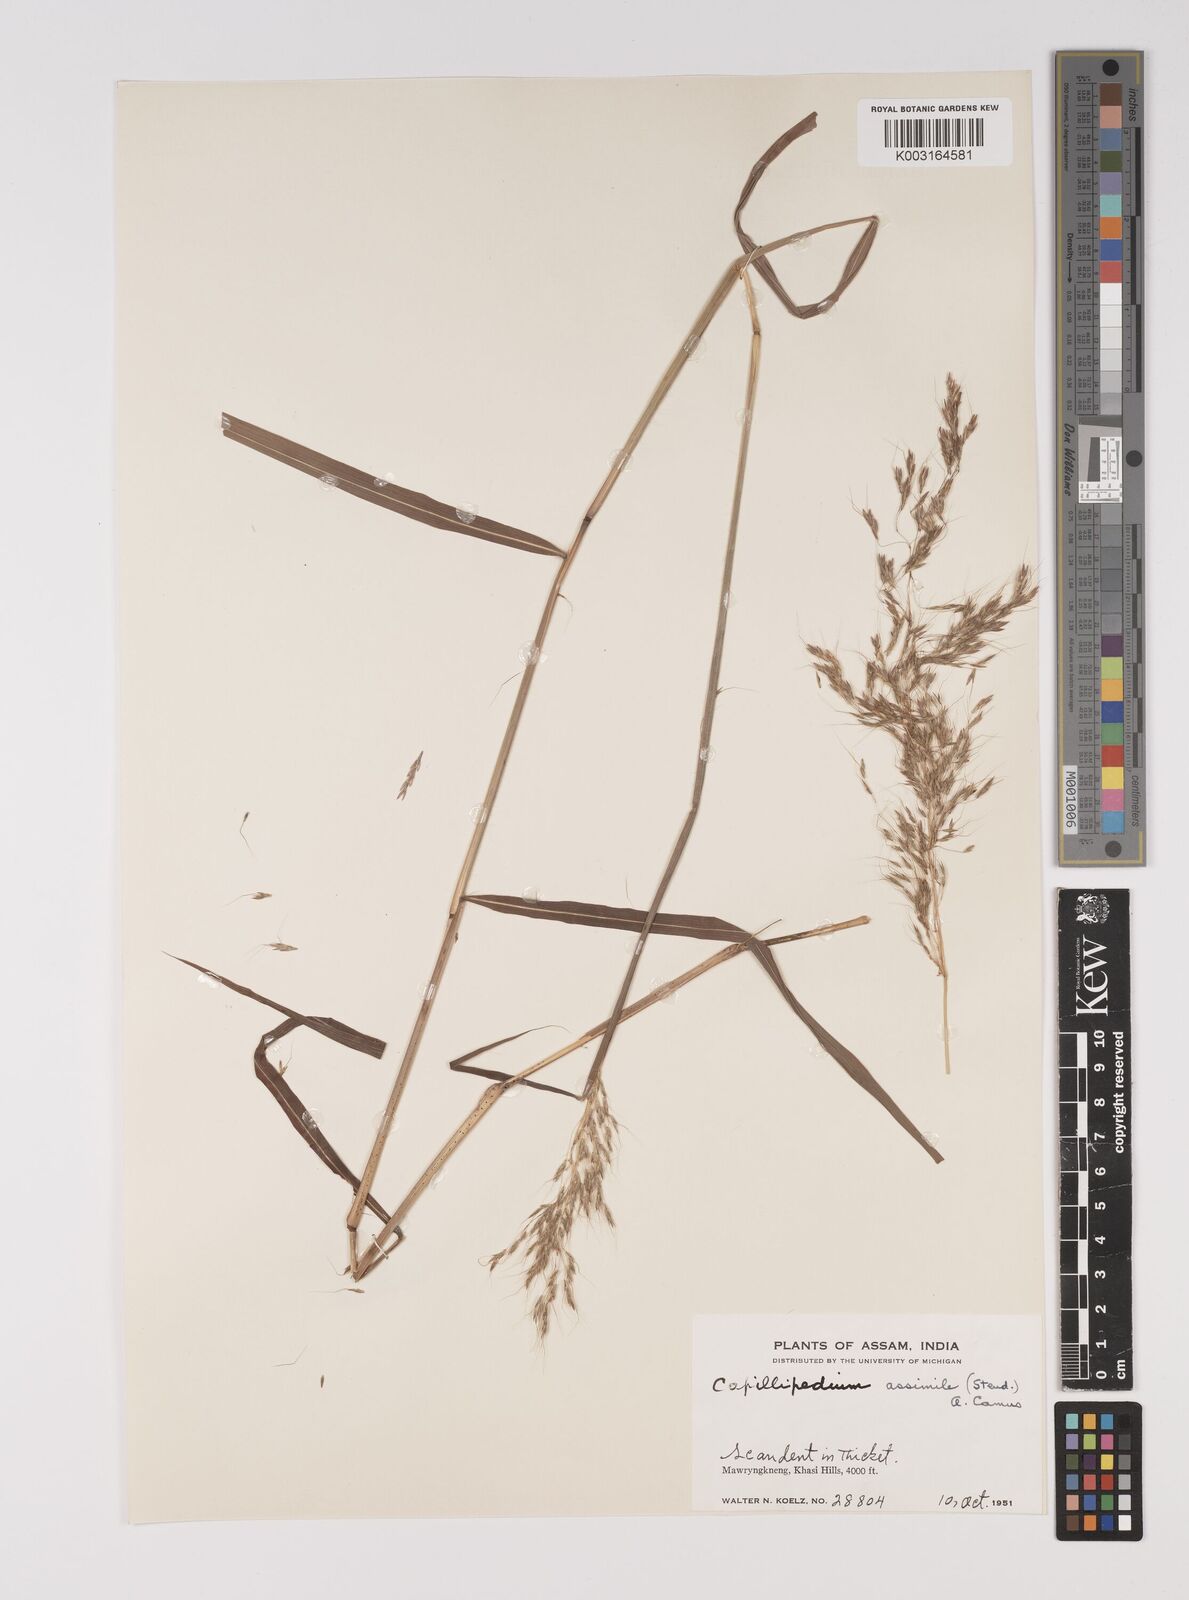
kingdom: Plantae
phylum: Tracheophyta
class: Liliopsida
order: Poales
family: Poaceae
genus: Capillipedium
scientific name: Capillipedium spicigerum
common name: Scented-top grass
